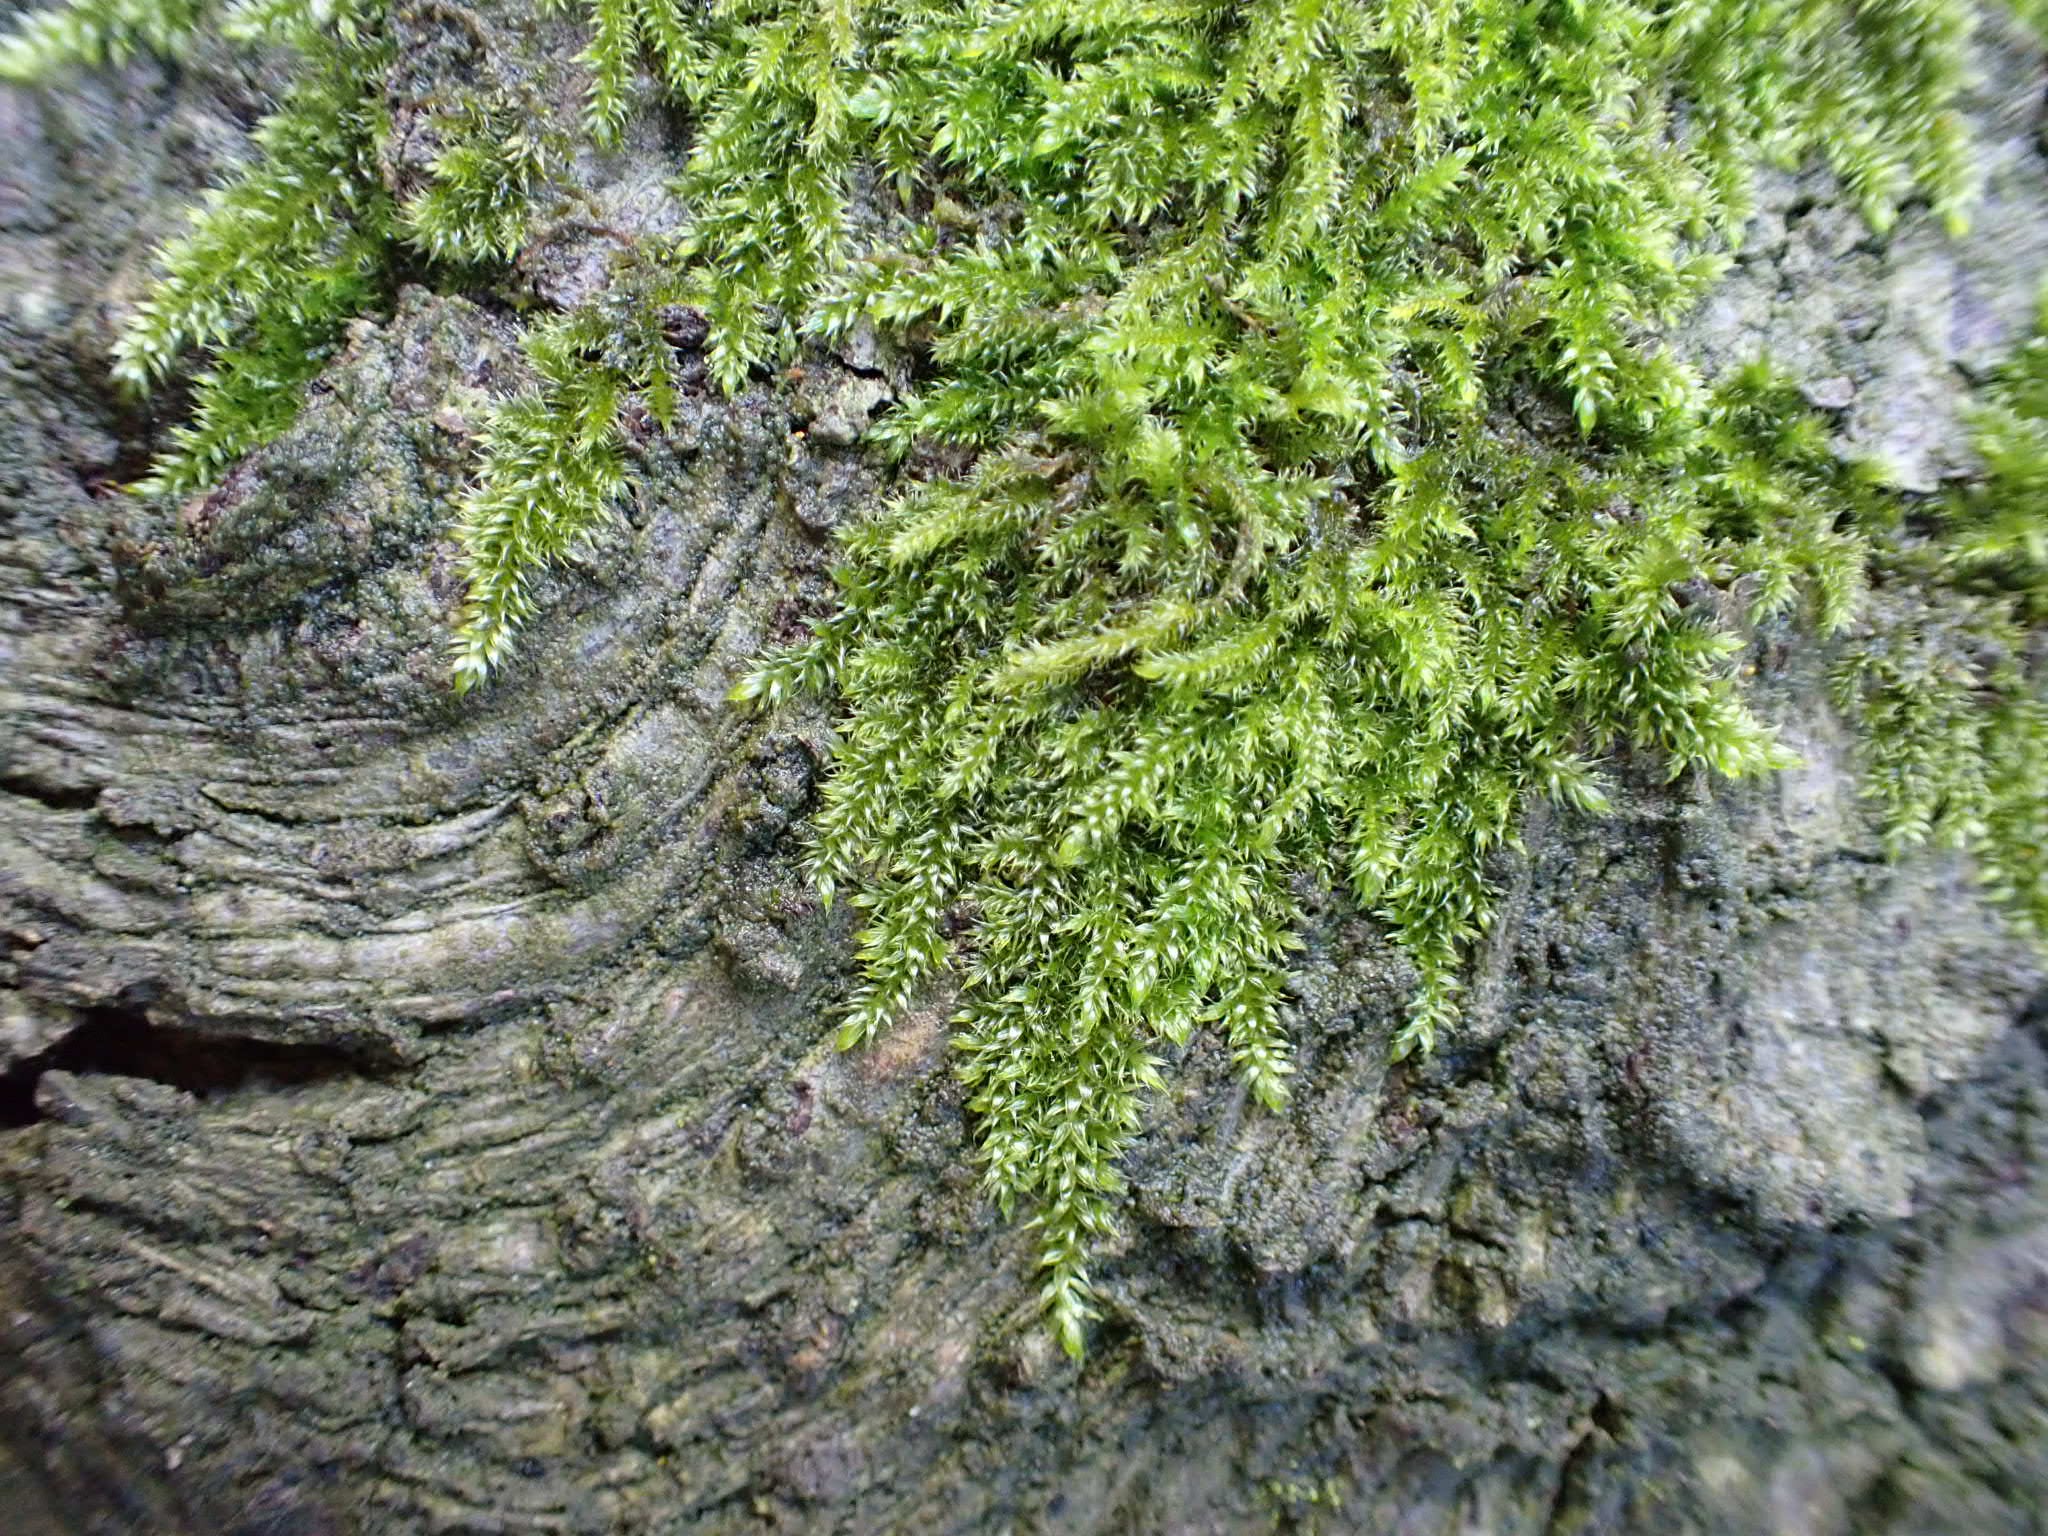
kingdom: Plantae
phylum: Bryophyta
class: Bryopsida
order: Hypnales
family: Hypnaceae
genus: Hypnum
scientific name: Hypnum cupressiforme
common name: Almindelig cypresmos
